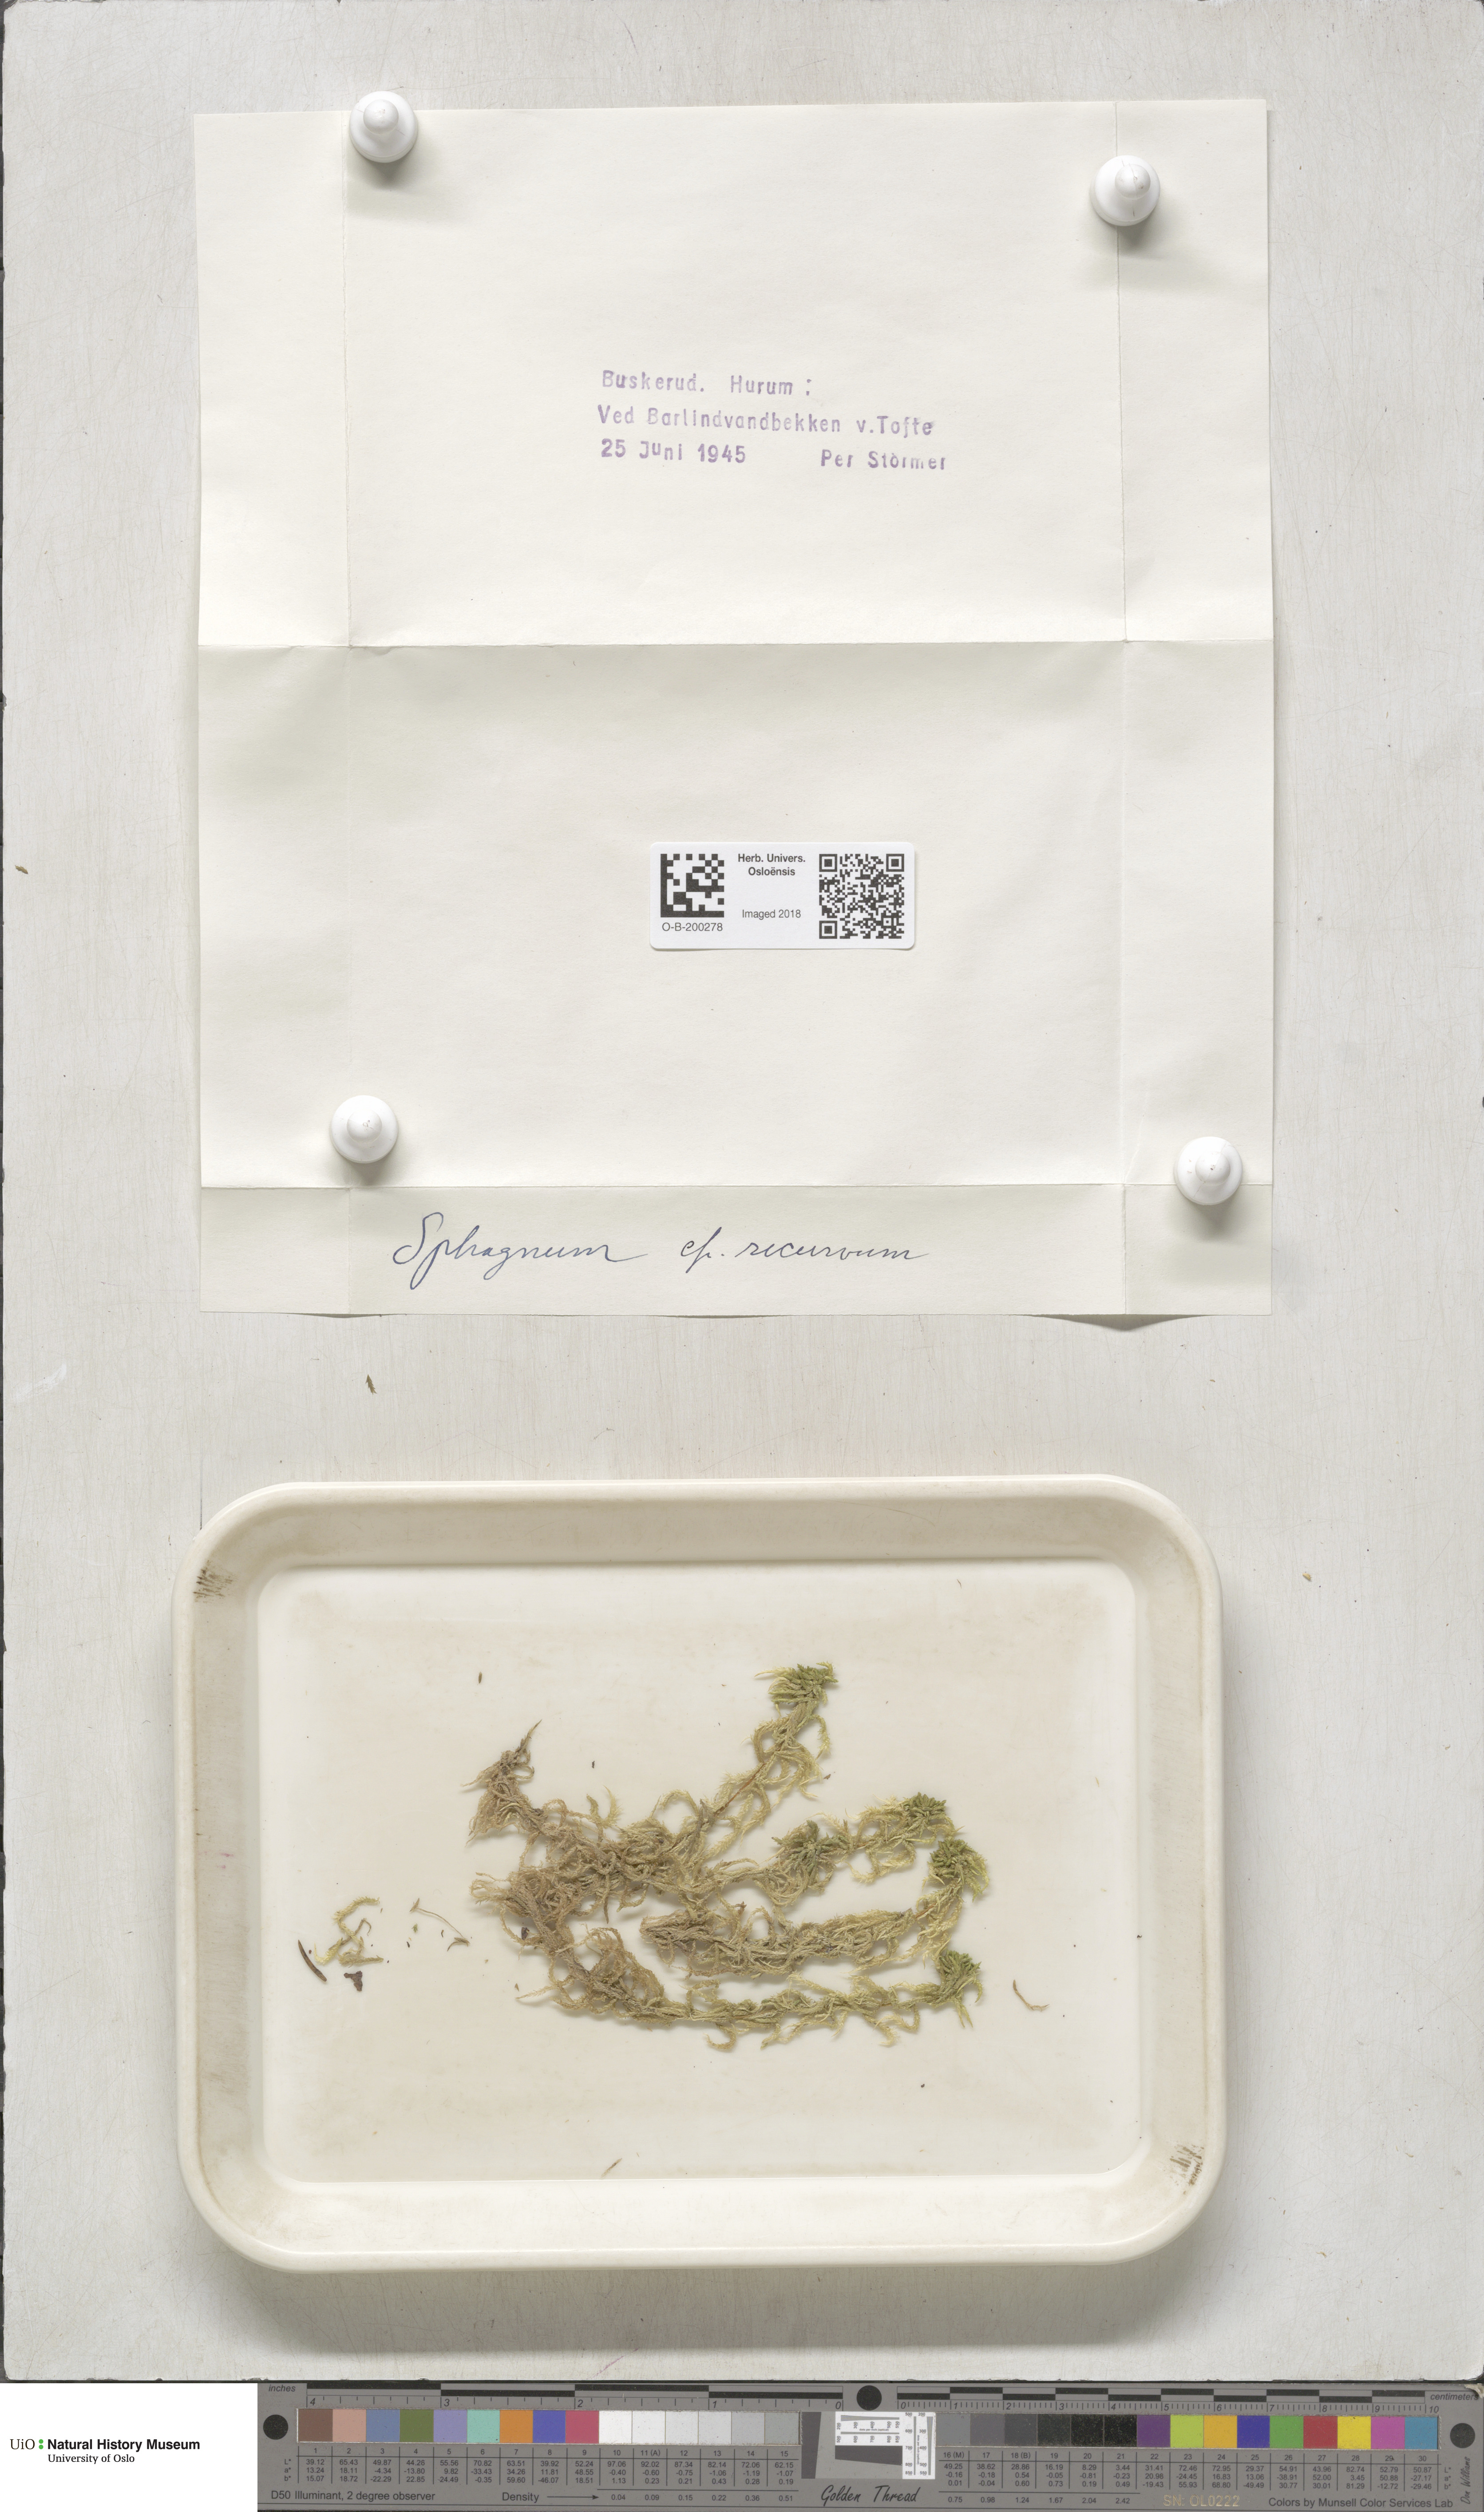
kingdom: Plantae
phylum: Bryophyta
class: Sphagnopsida
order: Sphagnales
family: Sphagnaceae
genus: Sphagnum
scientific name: Sphagnum fallax
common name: Flat-top peat moss
